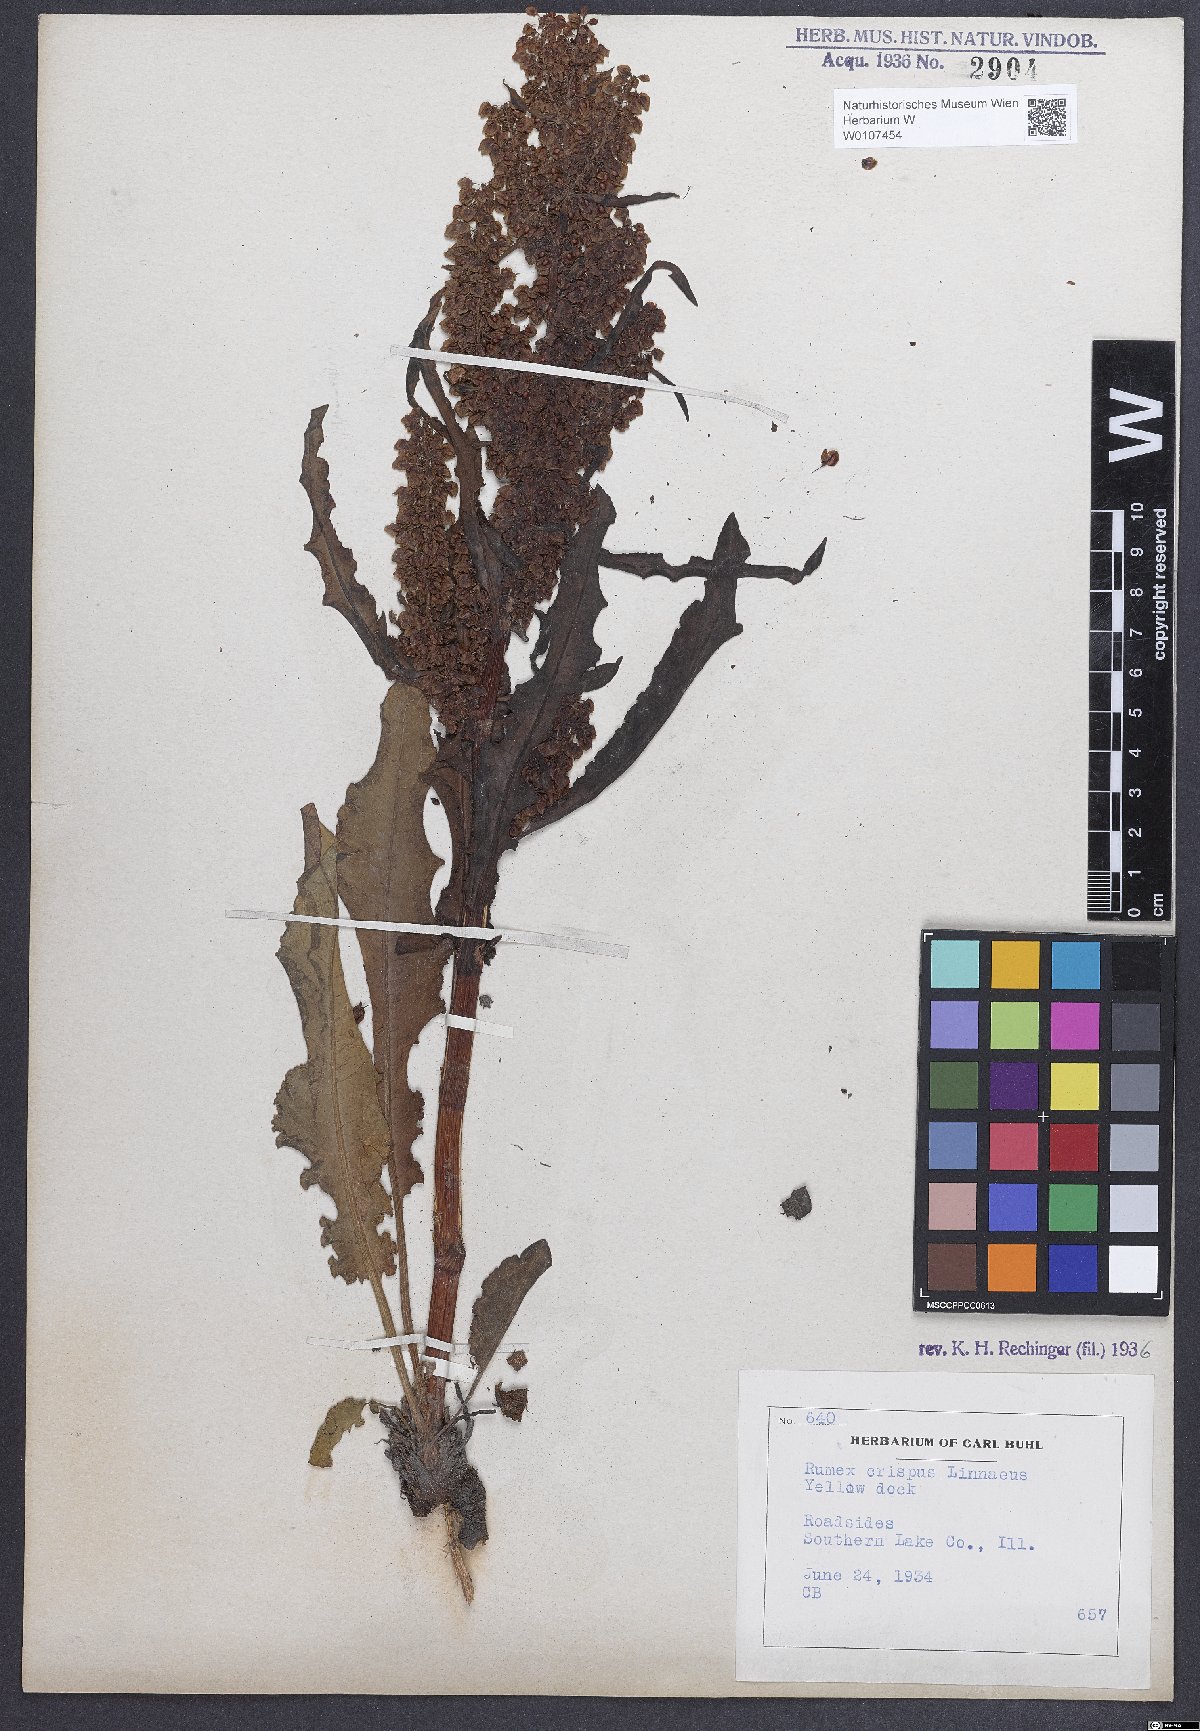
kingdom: Plantae
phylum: Tracheophyta
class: Magnoliopsida
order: Caryophyllales
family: Polygonaceae
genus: Rumex
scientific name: Rumex crispus
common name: Curled dock
